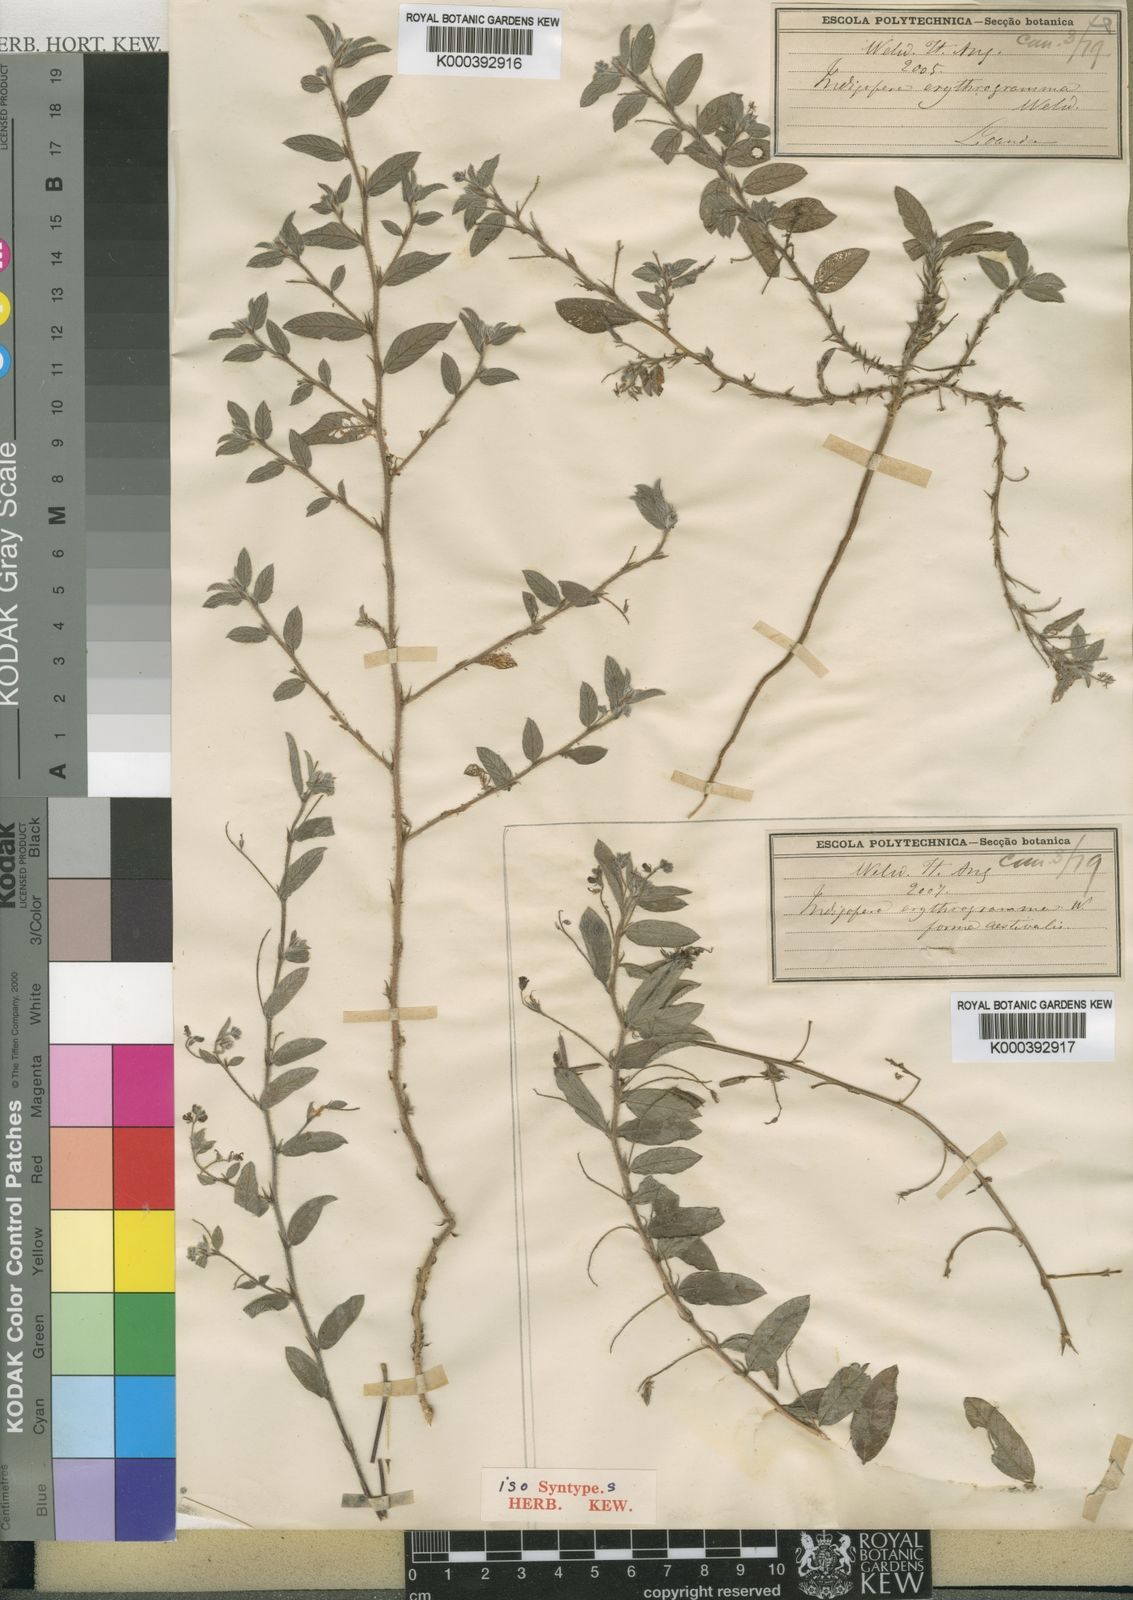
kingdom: Plantae
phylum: Tracheophyta
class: Magnoliopsida
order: Fabales
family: Fabaceae
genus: Indigofera
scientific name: Indigofera erythrogramma
